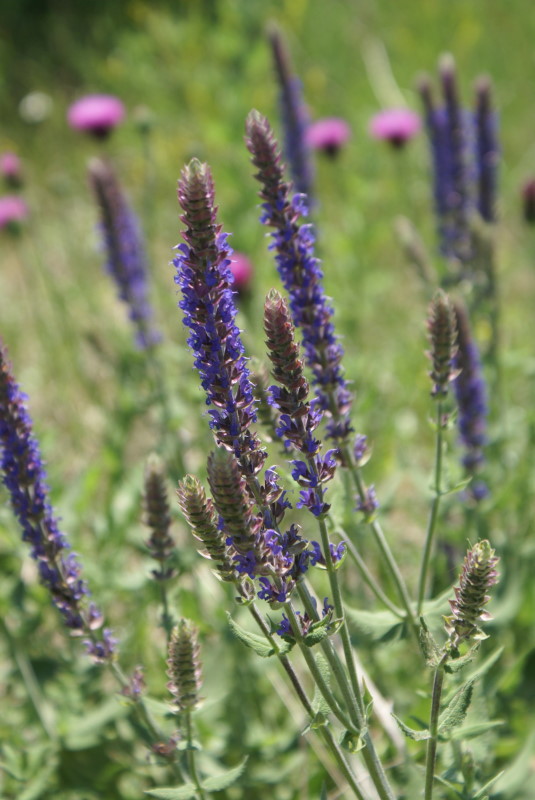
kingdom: Plantae
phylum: Tracheophyta
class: Magnoliopsida
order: Lamiales
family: Lamiaceae
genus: Salvia
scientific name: Salvia nemorosa
